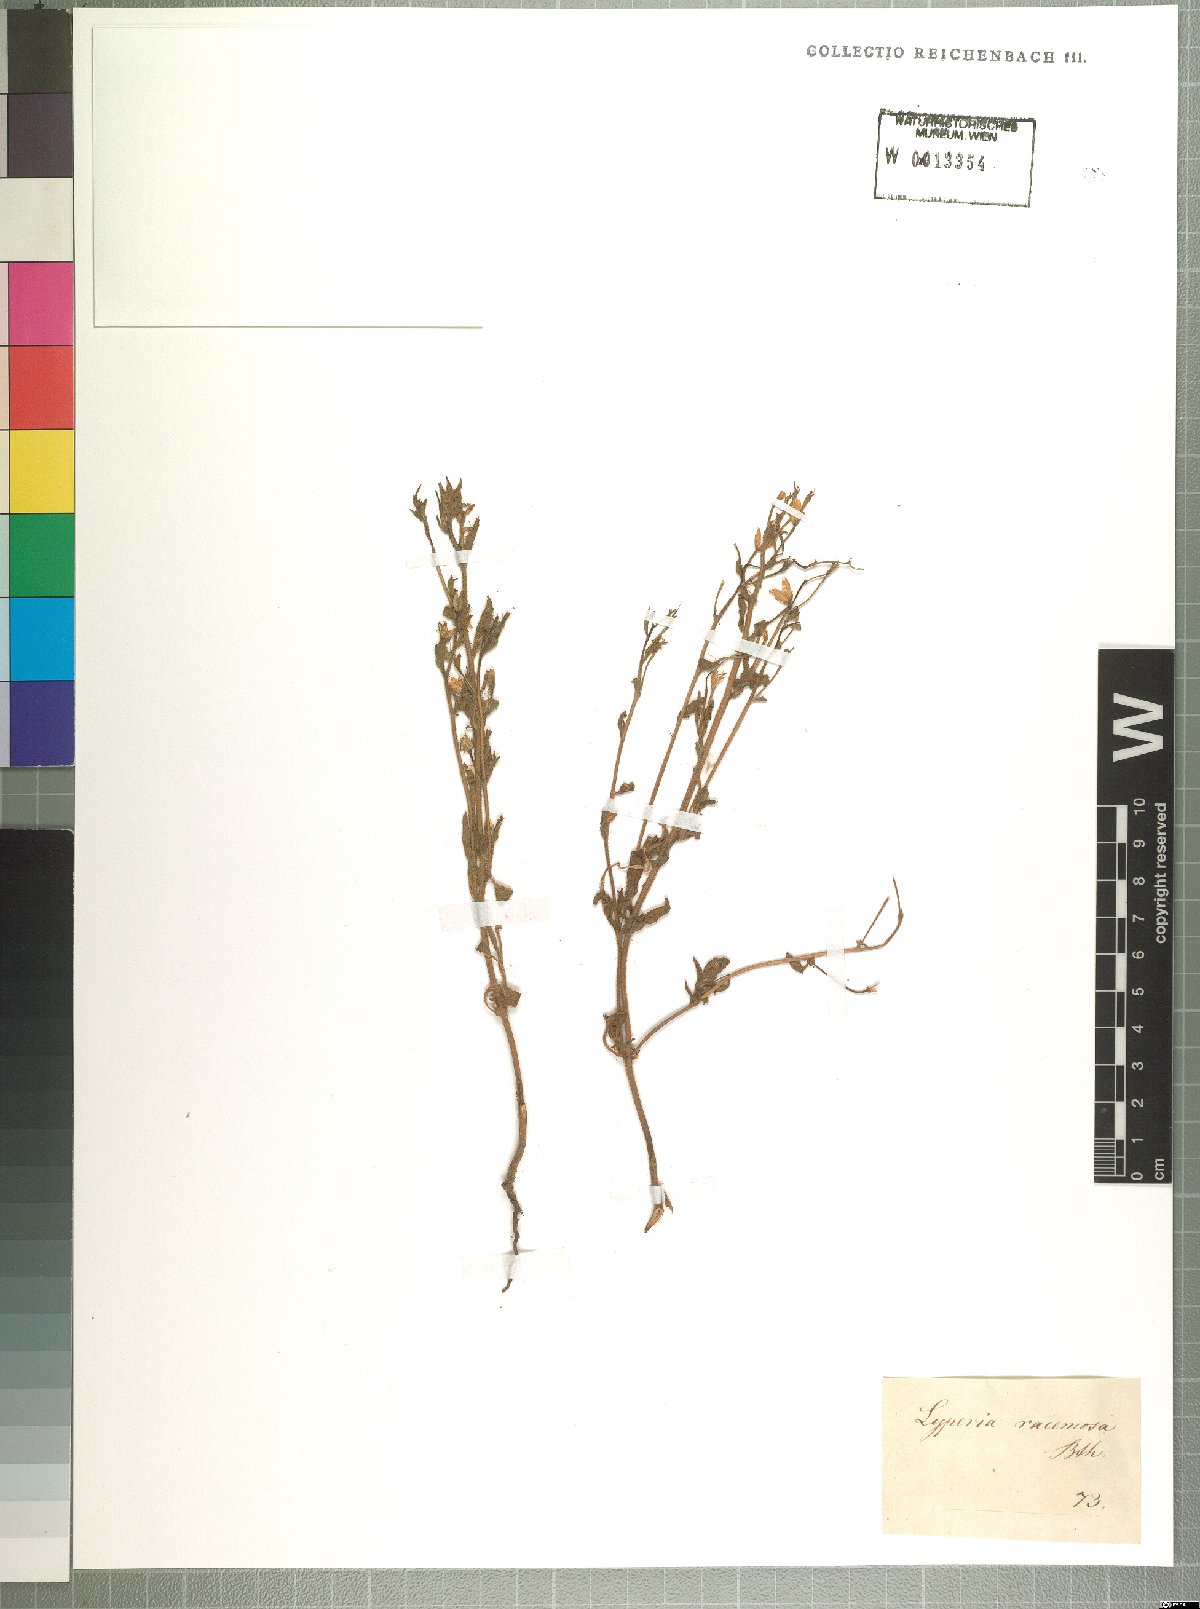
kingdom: Plantae
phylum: Tracheophyta
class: Magnoliopsida
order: Lamiales
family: Scrophulariaceae
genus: Jamesbrittenia
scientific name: Jamesbrittenia racemosa
